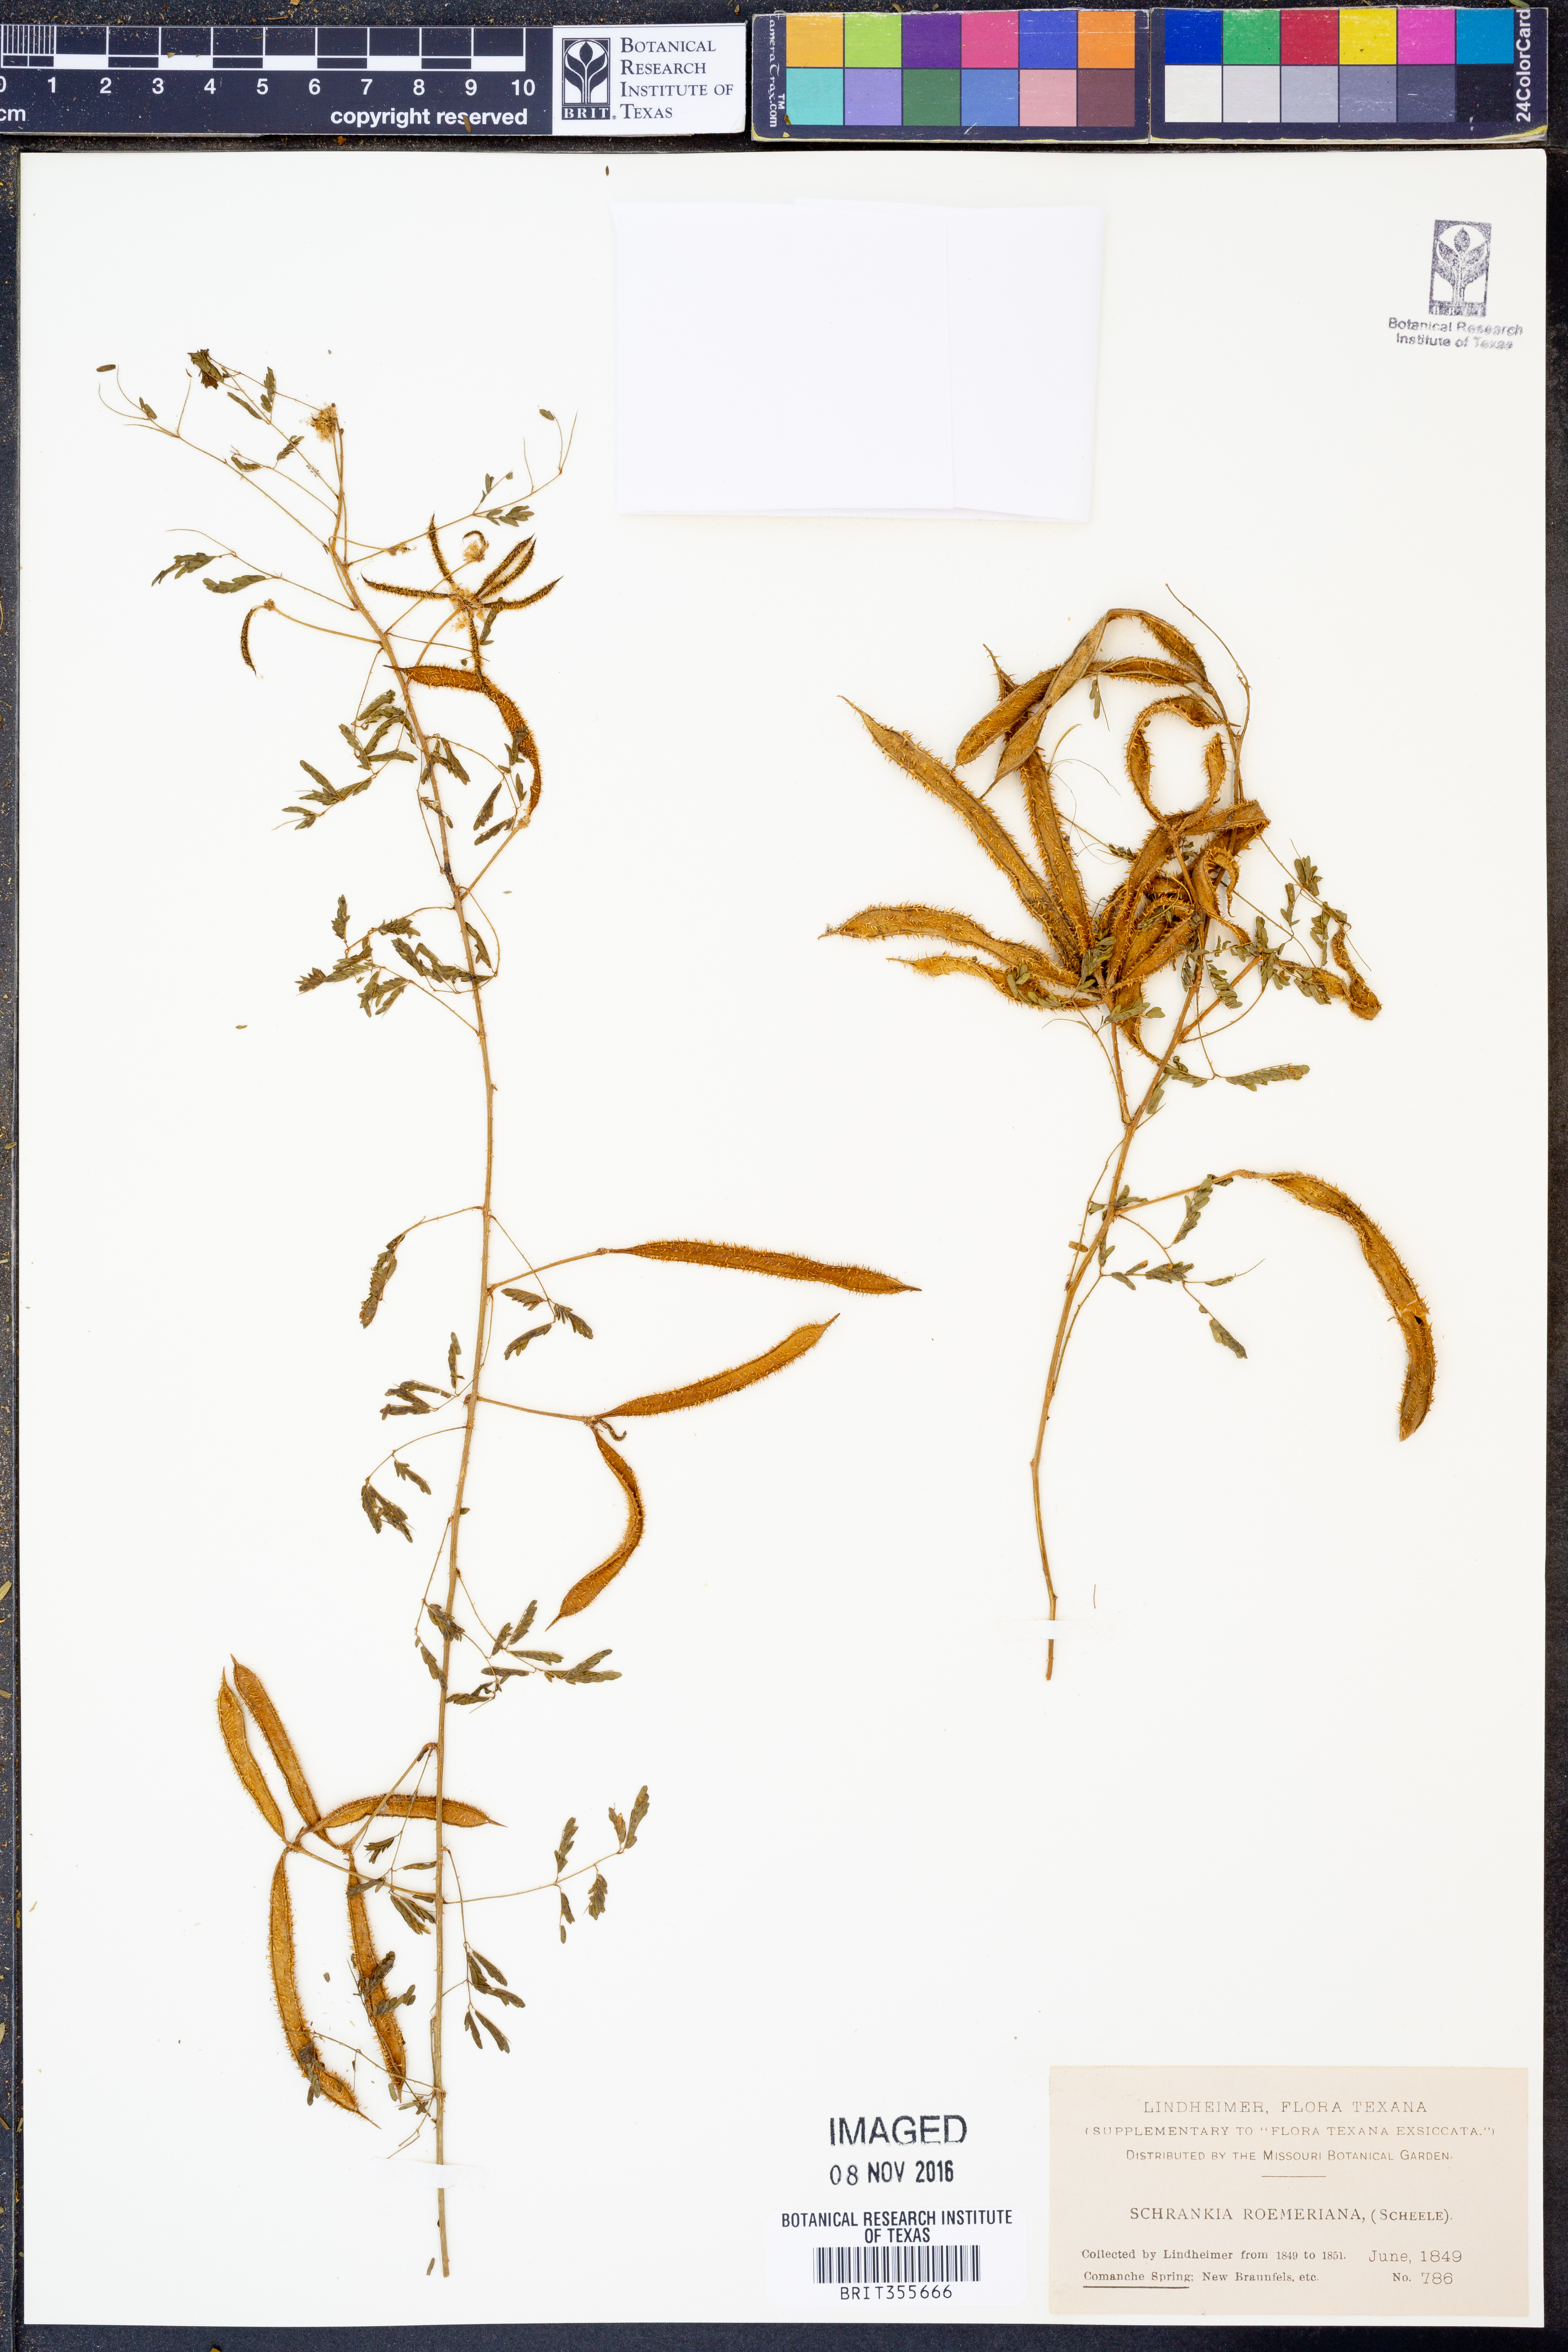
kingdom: Plantae
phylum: Tracheophyta
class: Magnoliopsida
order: Fabales
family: Fabaceae
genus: Mimosa
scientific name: Mimosa quadrivalvis
